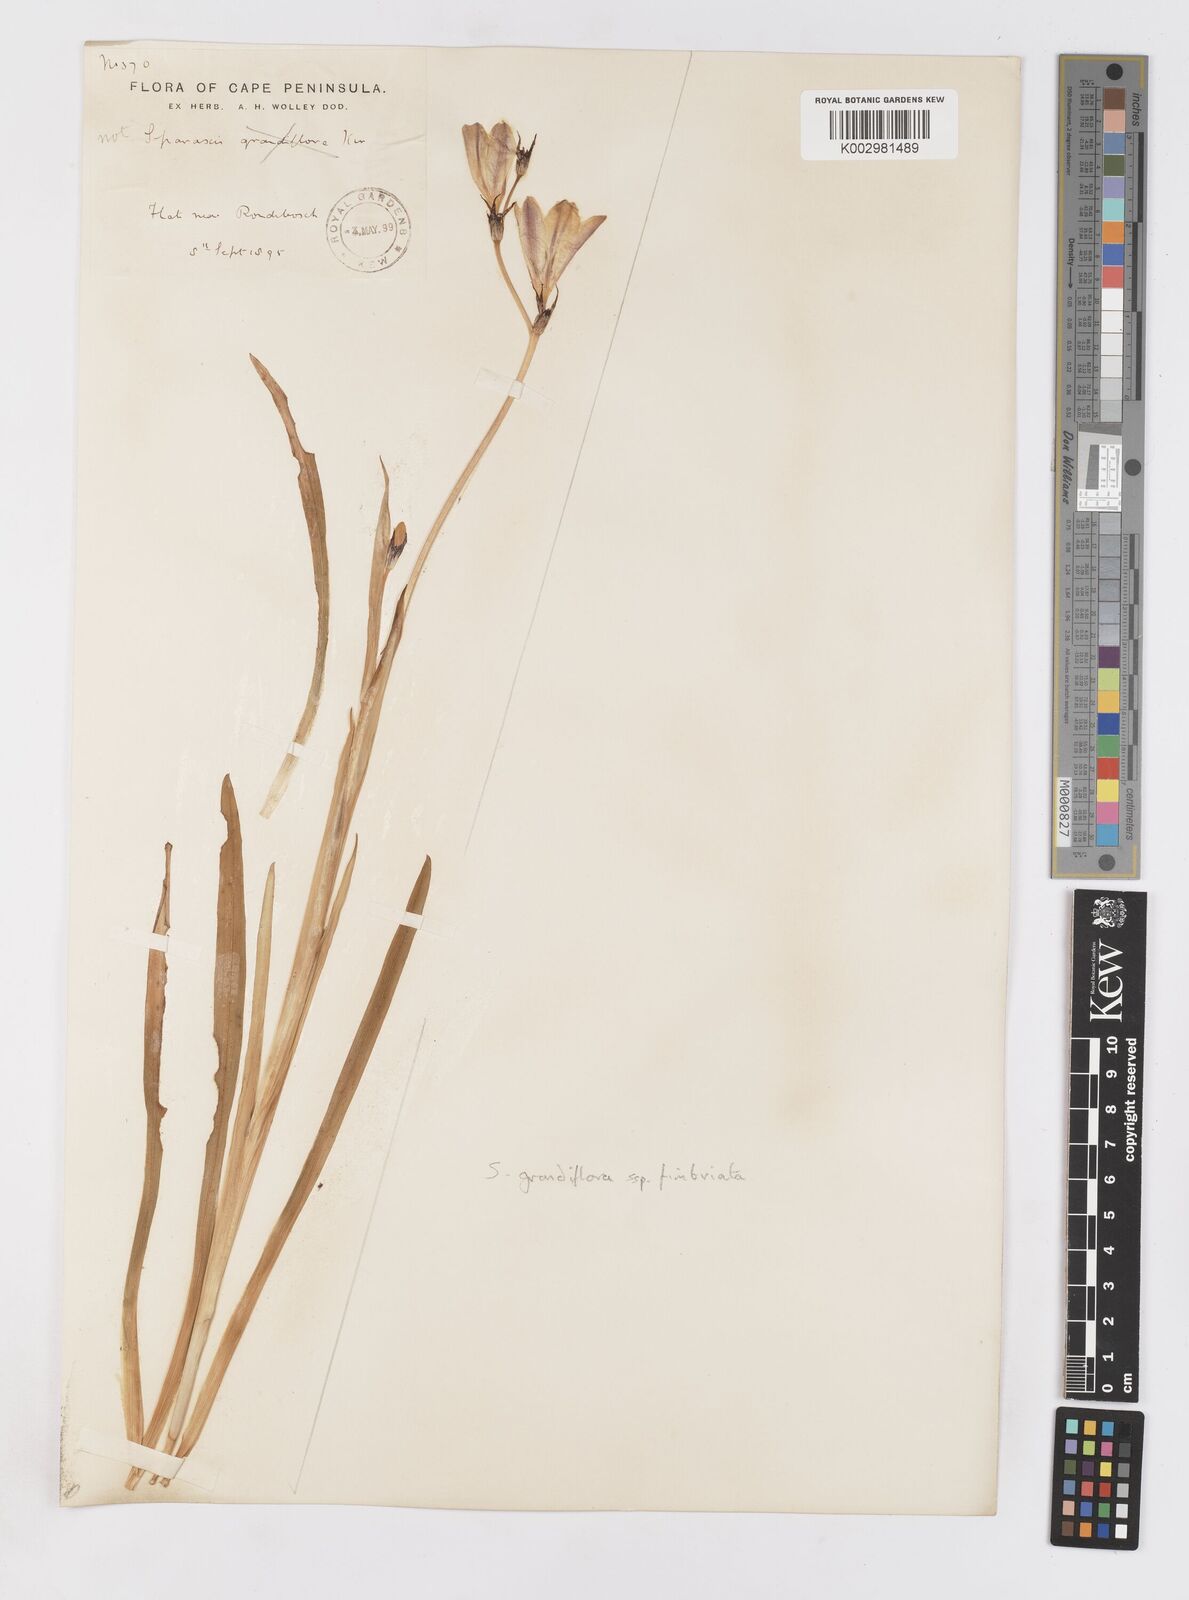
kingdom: Plantae
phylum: Tracheophyta
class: Liliopsida
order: Asparagales
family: Iridaceae
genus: Sparaxis
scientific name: Sparaxis grandiflora
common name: Plain harlequin-flower
